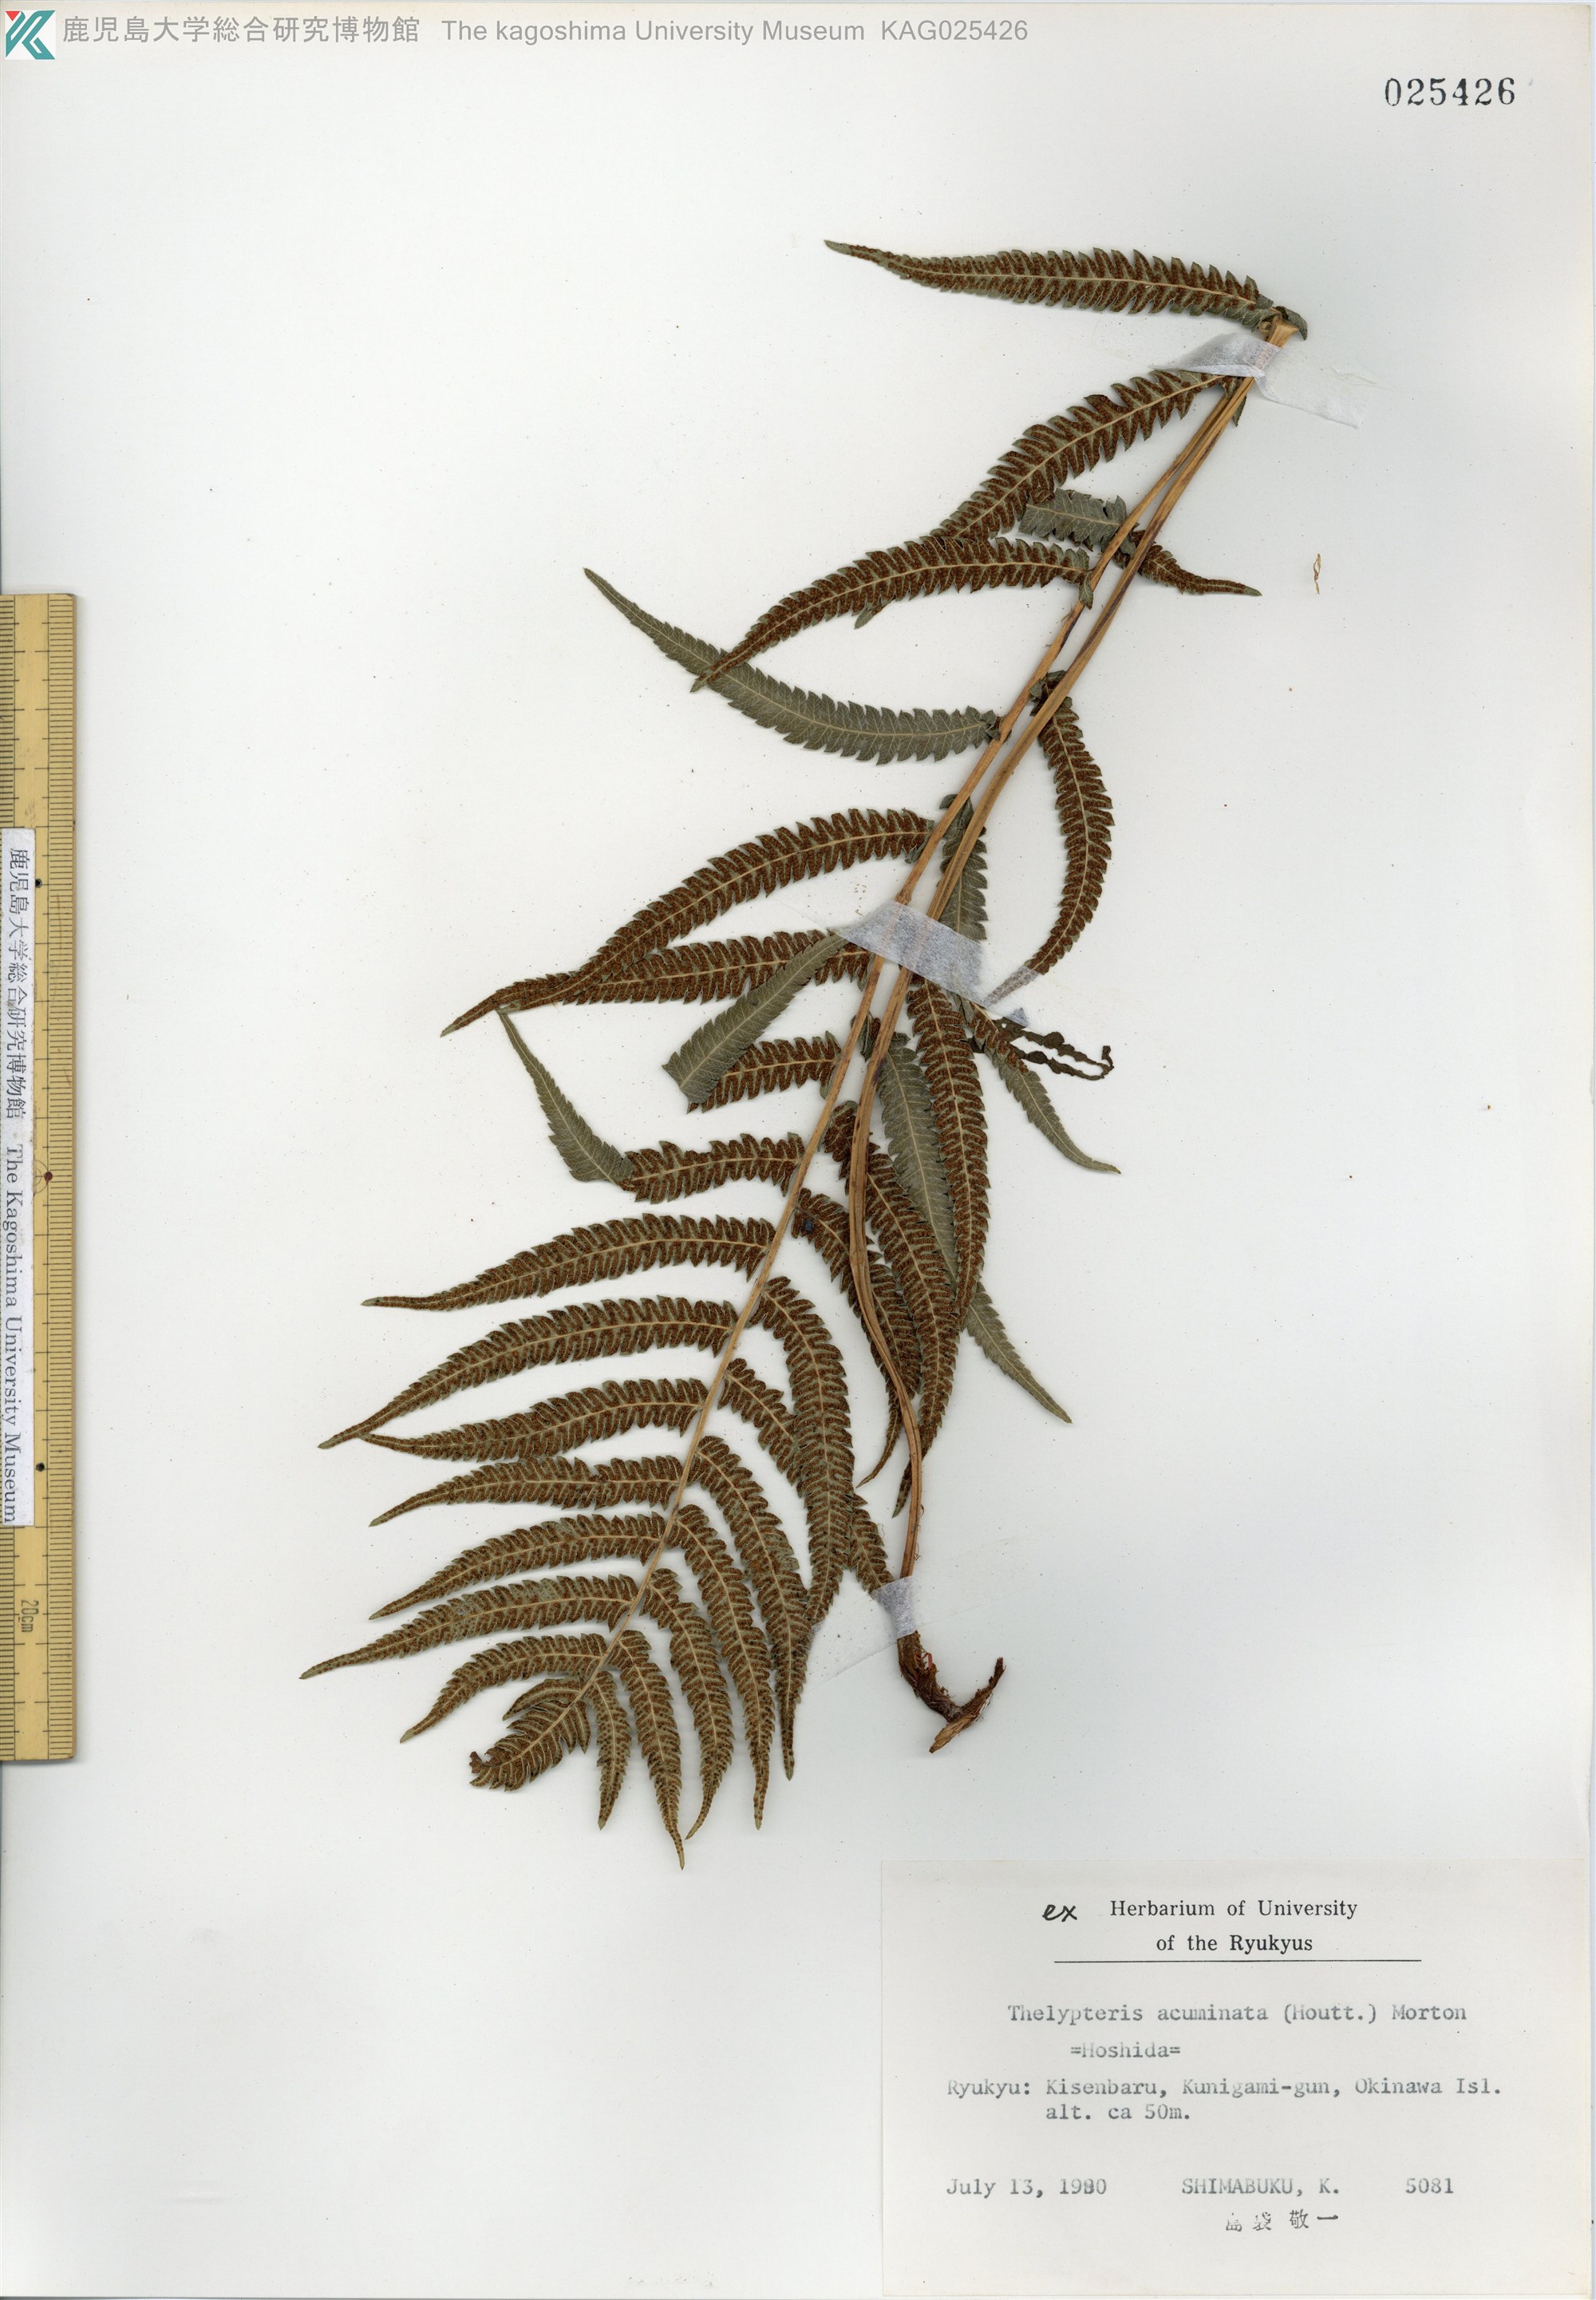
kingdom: Plantae
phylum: Tracheophyta
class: Polypodiopsida
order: Polypodiales
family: Thelypteridaceae
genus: Christella
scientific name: Christella acuminata
